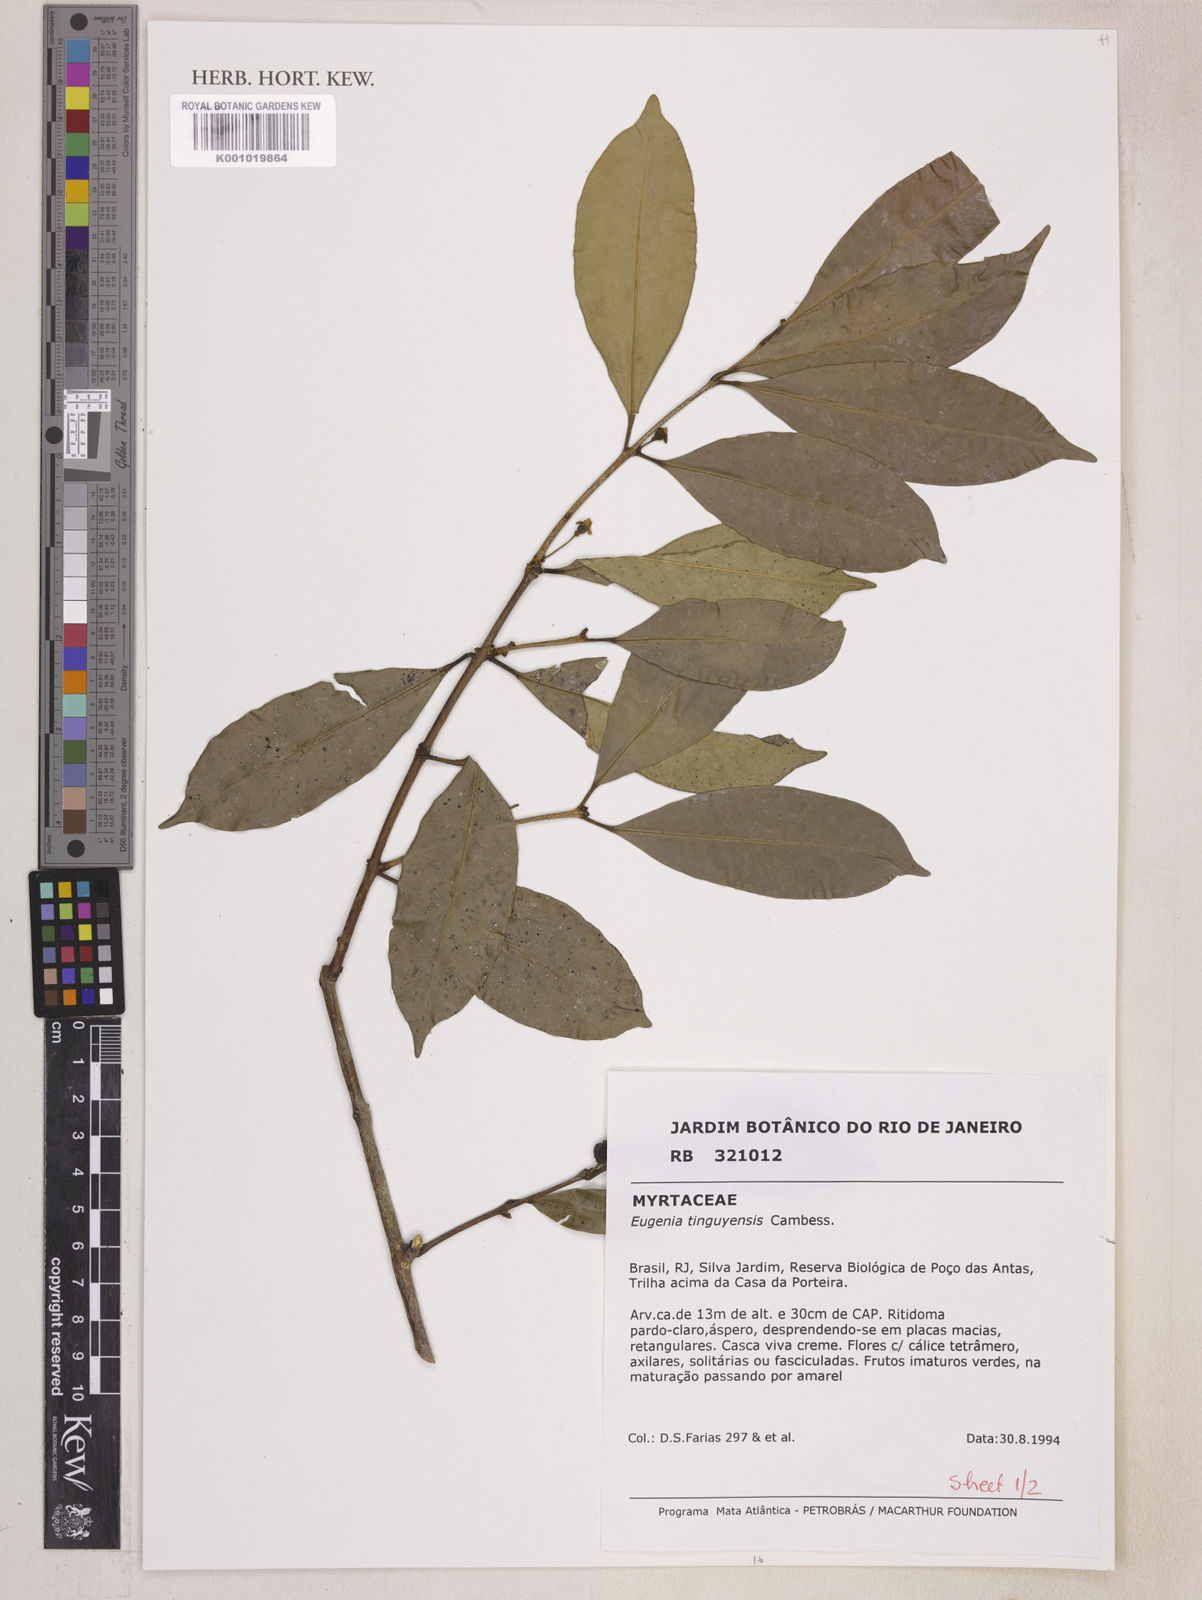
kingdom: Plantae
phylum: Tracheophyta
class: Magnoliopsida
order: Myrtales
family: Myrtaceae
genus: Eugenia
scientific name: Eugenia pisiformis
